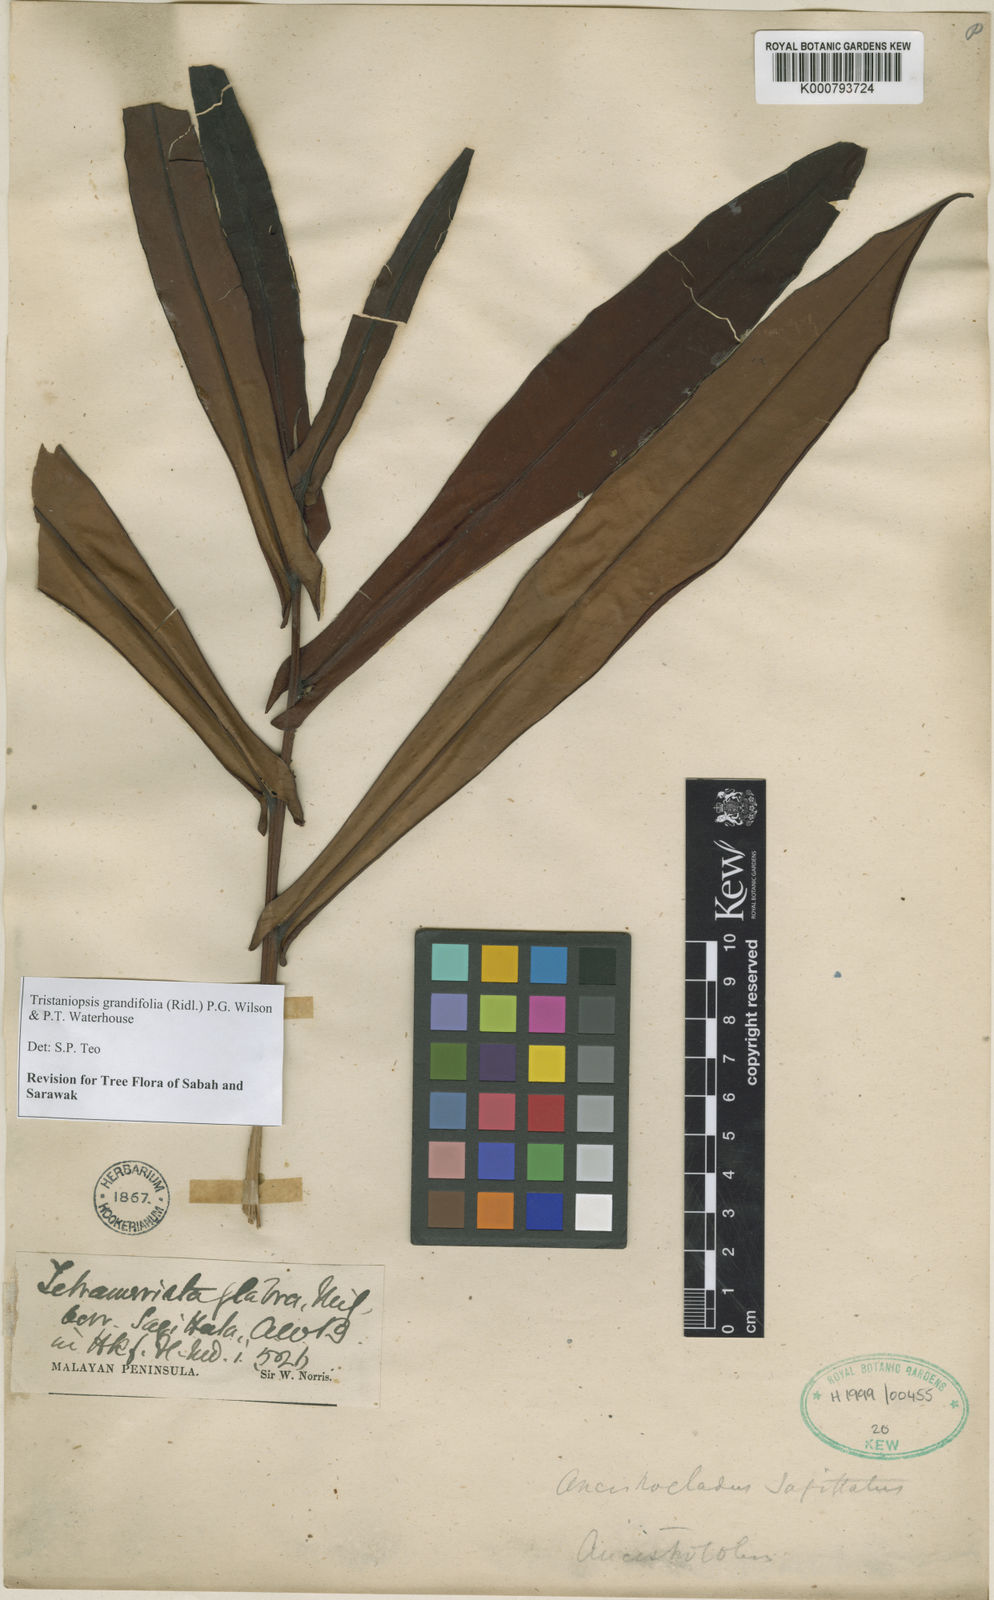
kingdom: Plantae
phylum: Tracheophyta
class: Magnoliopsida
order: Myrtales
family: Myrtaceae
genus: Tristaniopsis
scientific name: Tristaniopsis merguensis
